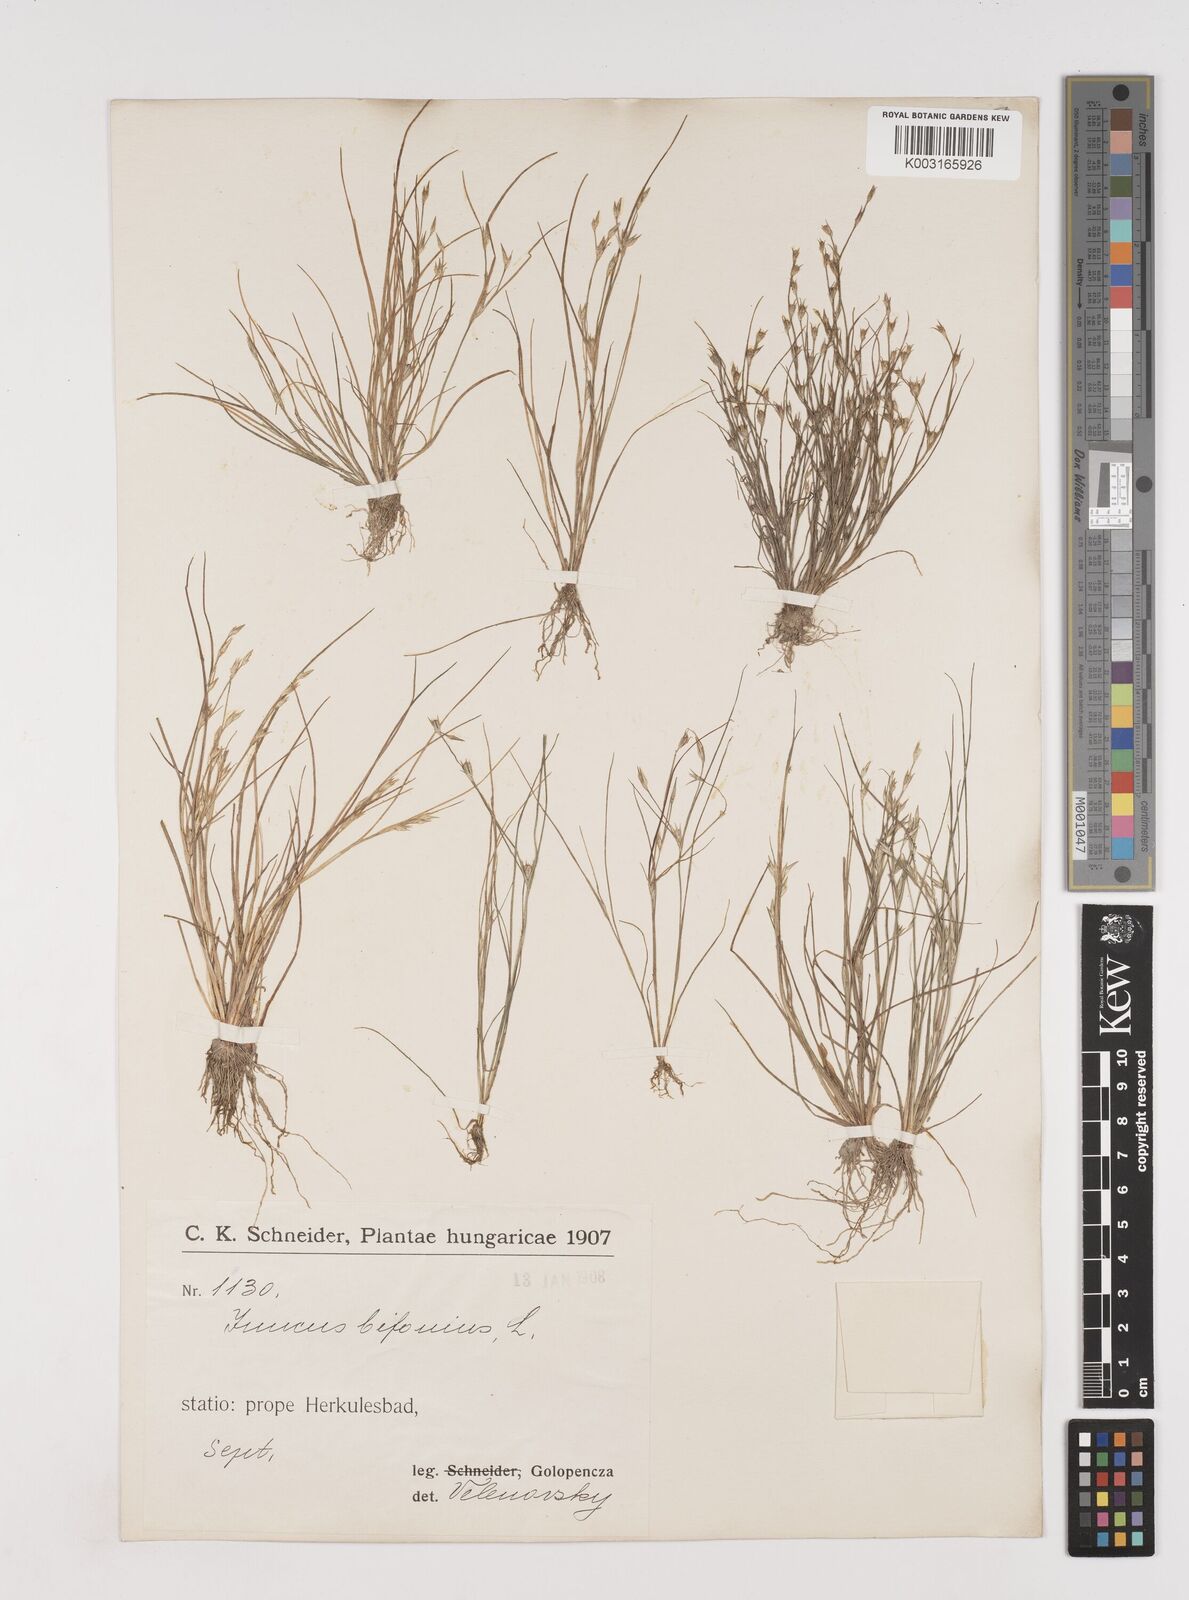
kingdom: Plantae
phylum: Tracheophyta
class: Liliopsida
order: Poales
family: Juncaceae
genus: Juncus
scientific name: Juncus bufonius
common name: Toad rush
